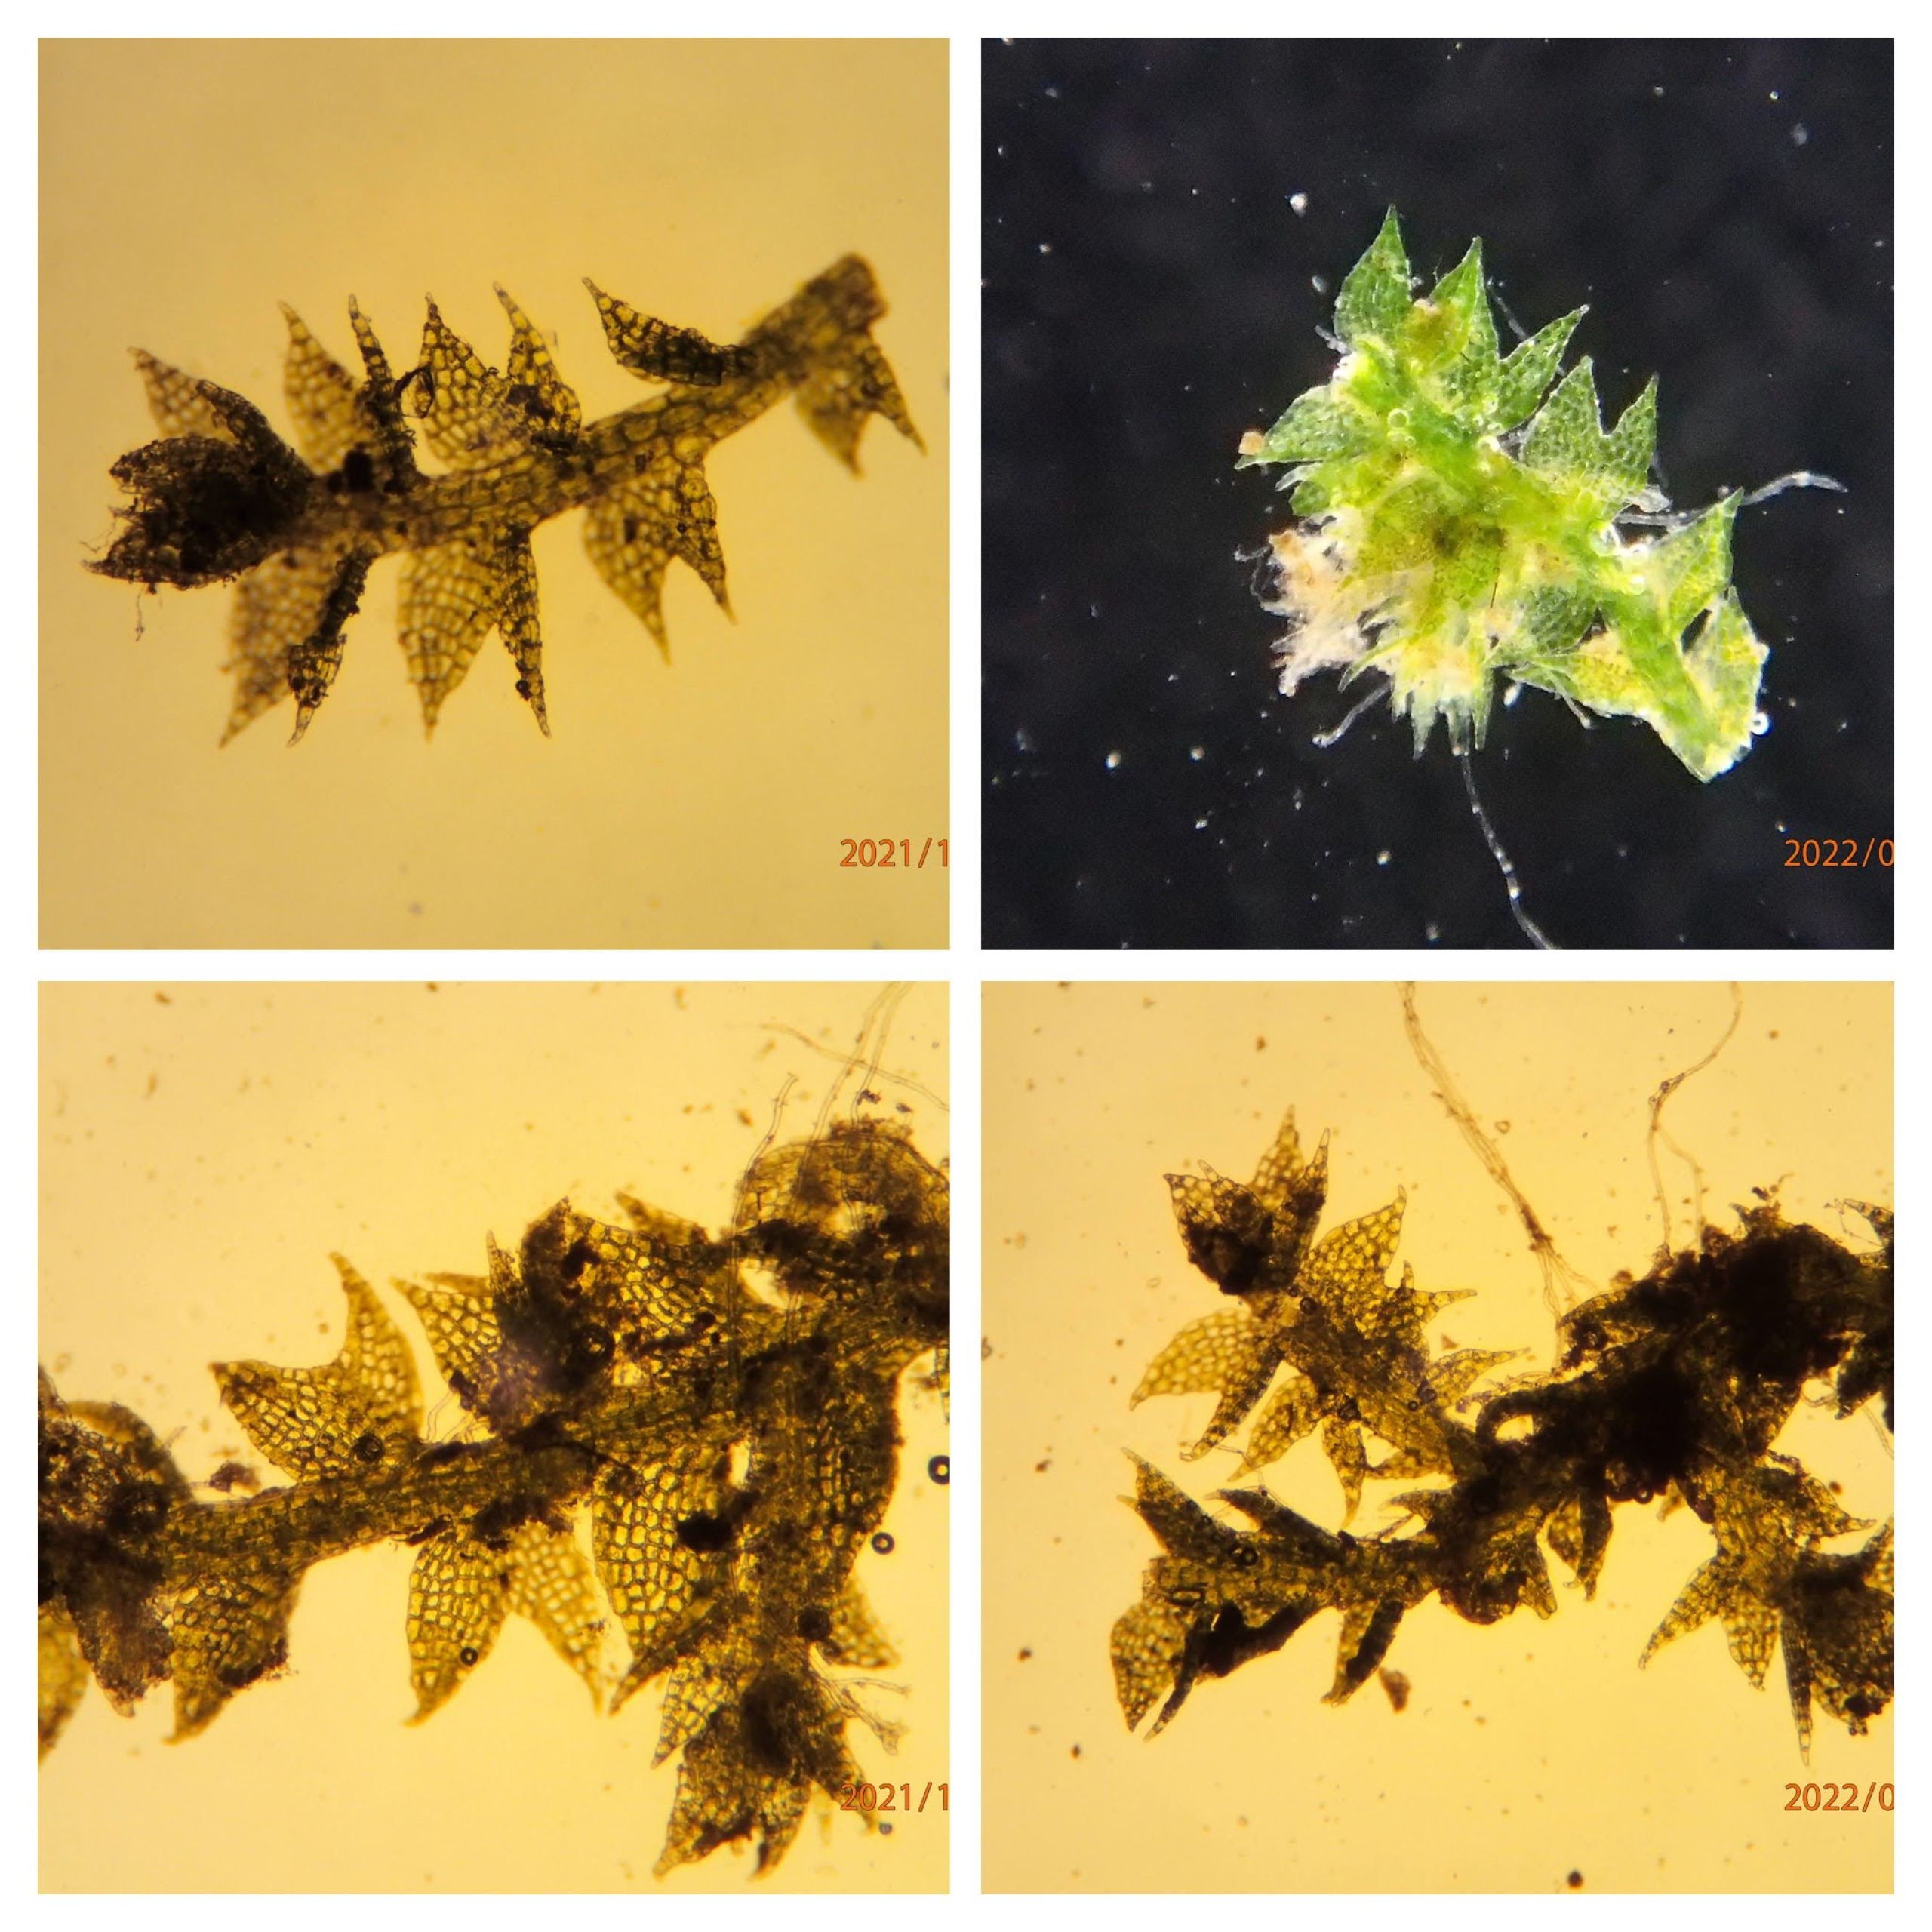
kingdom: Plantae
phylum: Marchantiophyta
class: Jungermanniopsida
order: Jungermanniales
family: Cephaloziaceae
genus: Cephalozia
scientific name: Cephalozia bicuspidata
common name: Tvespidset kantbæger
